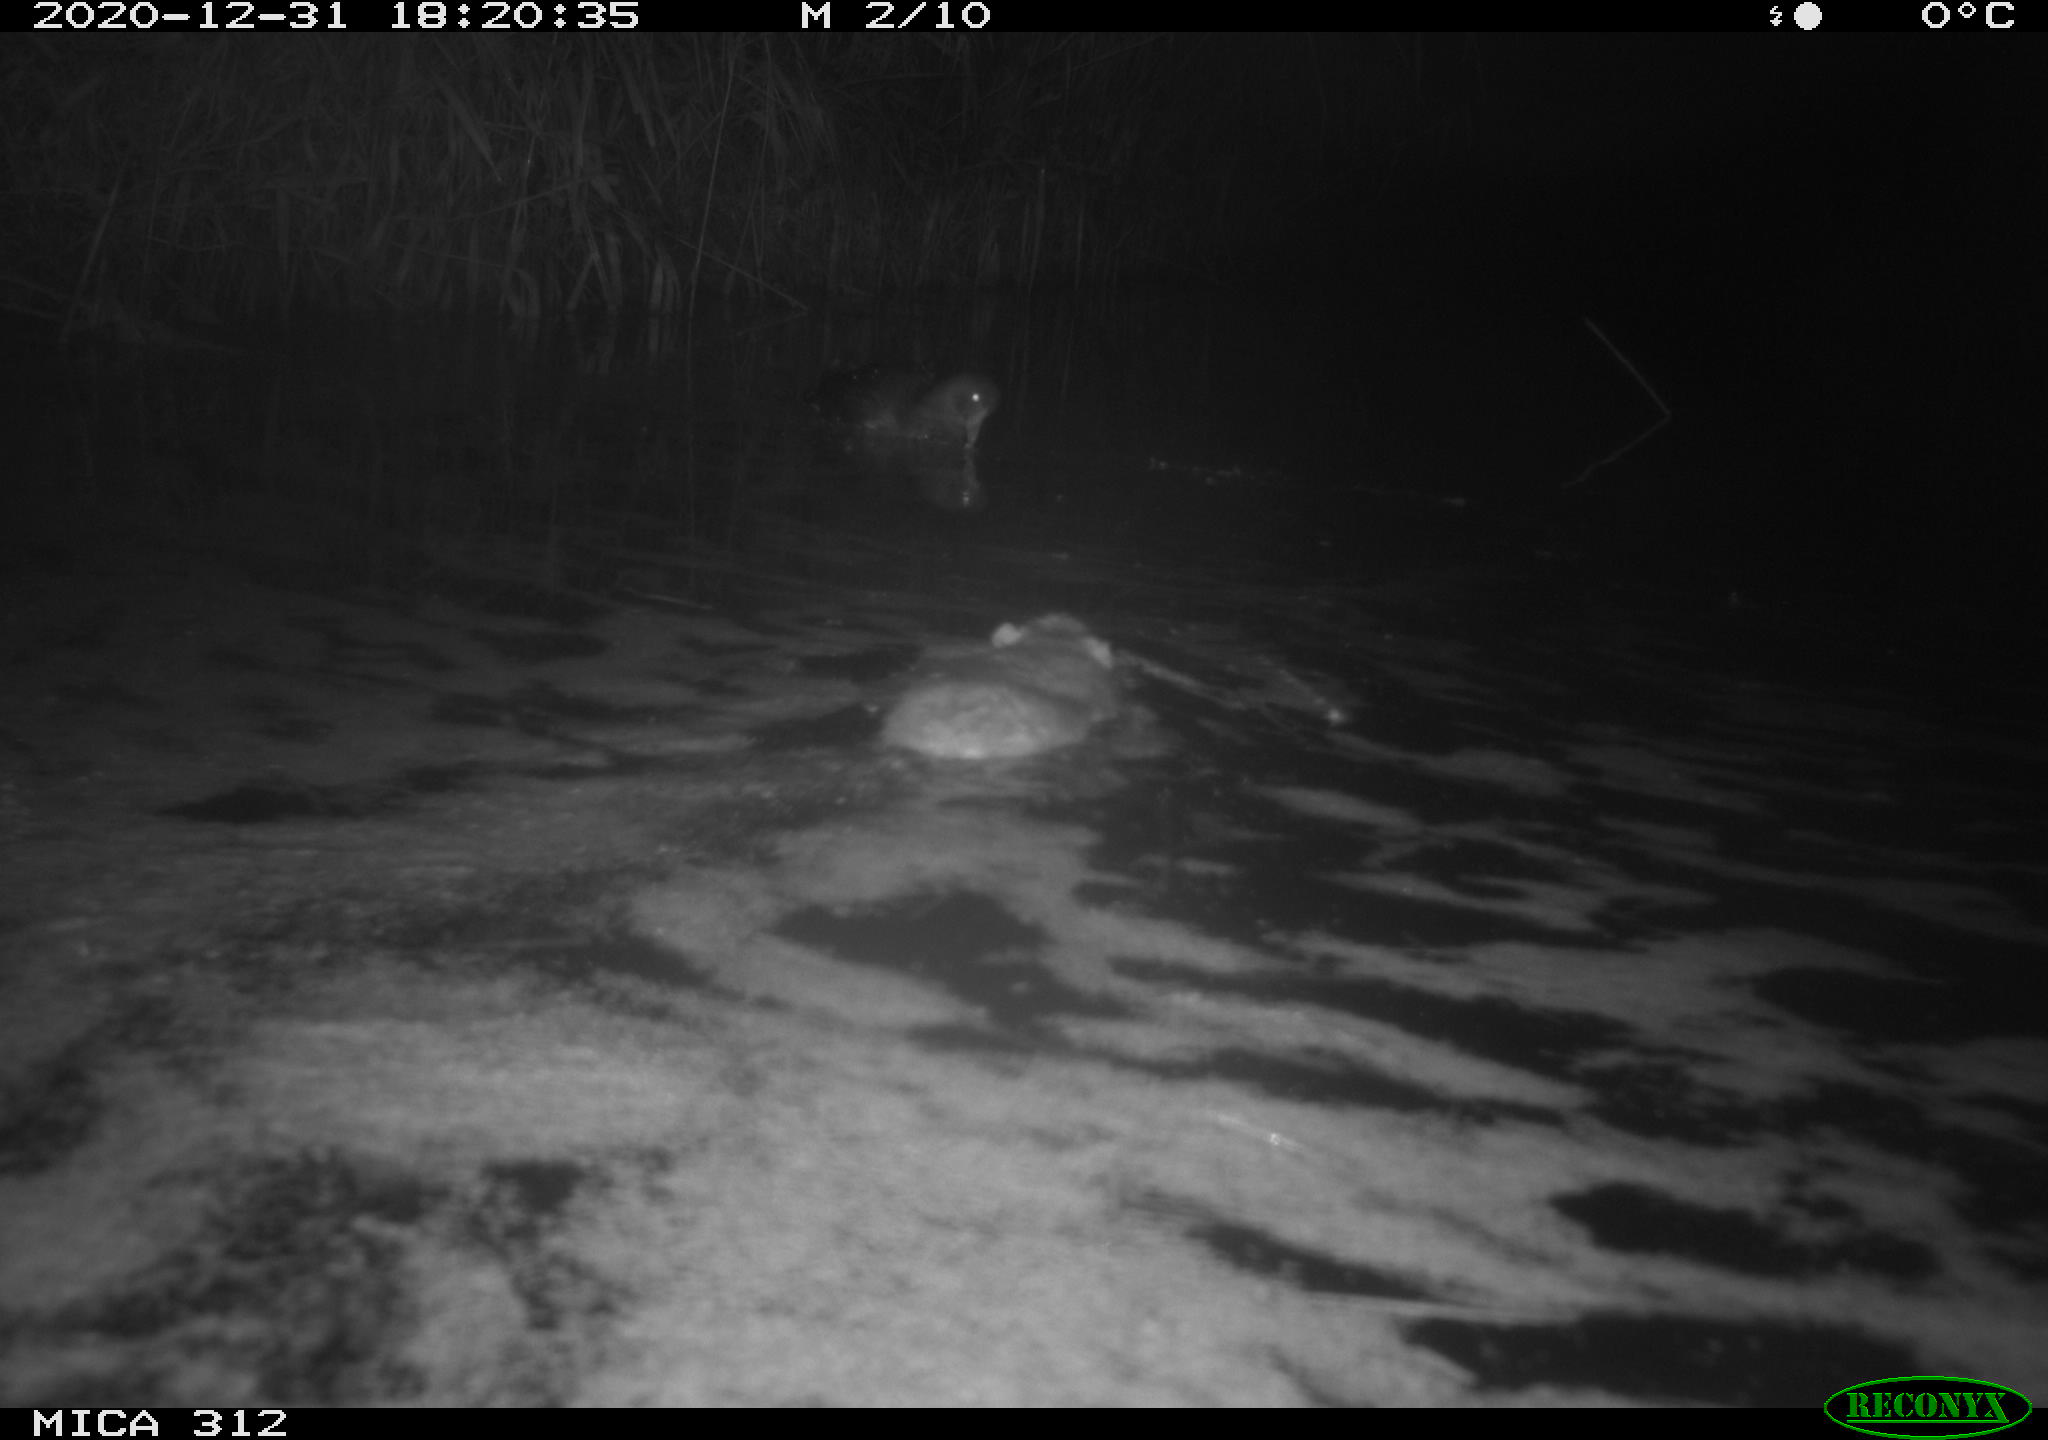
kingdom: Animalia
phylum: Chordata
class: Mammalia
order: Rodentia
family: Muridae
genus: Rattus
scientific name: Rattus norvegicus
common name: Brown rat
